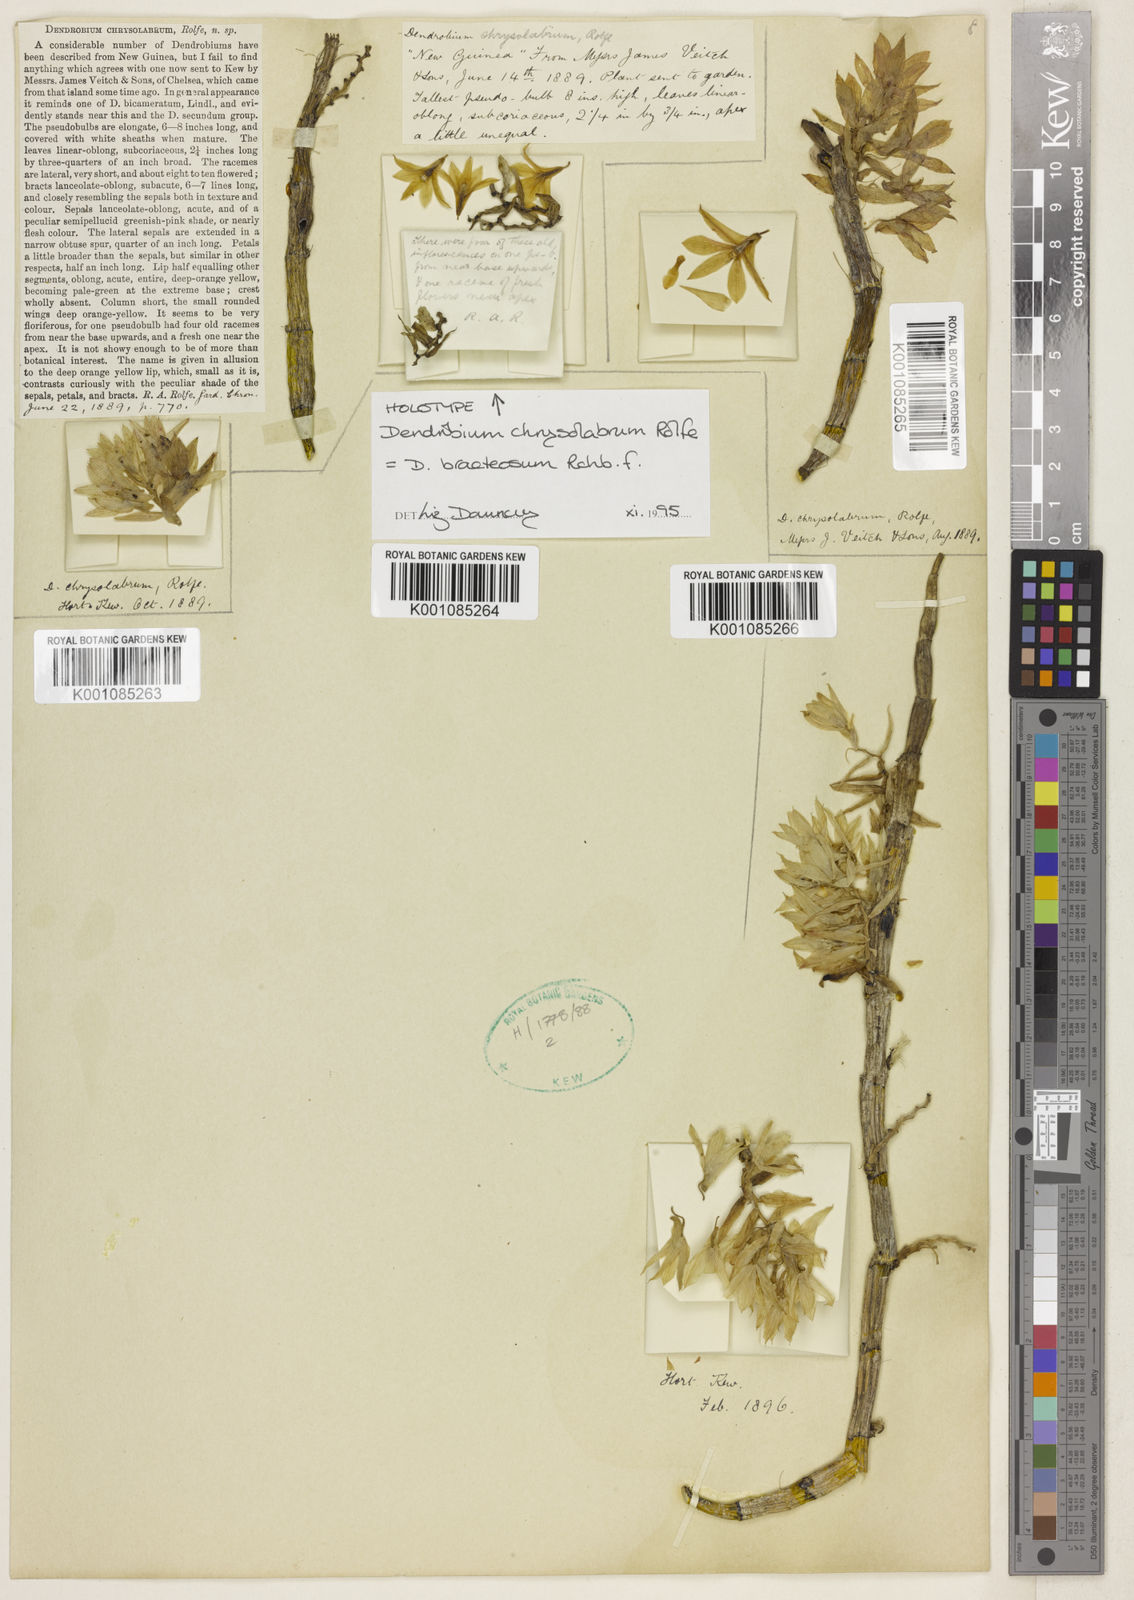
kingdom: Plantae
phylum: Tracheophyta
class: Liliopsida
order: Asparagales
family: Orchidaceae
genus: Dendrobium
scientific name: Dendrobium bracteosum
